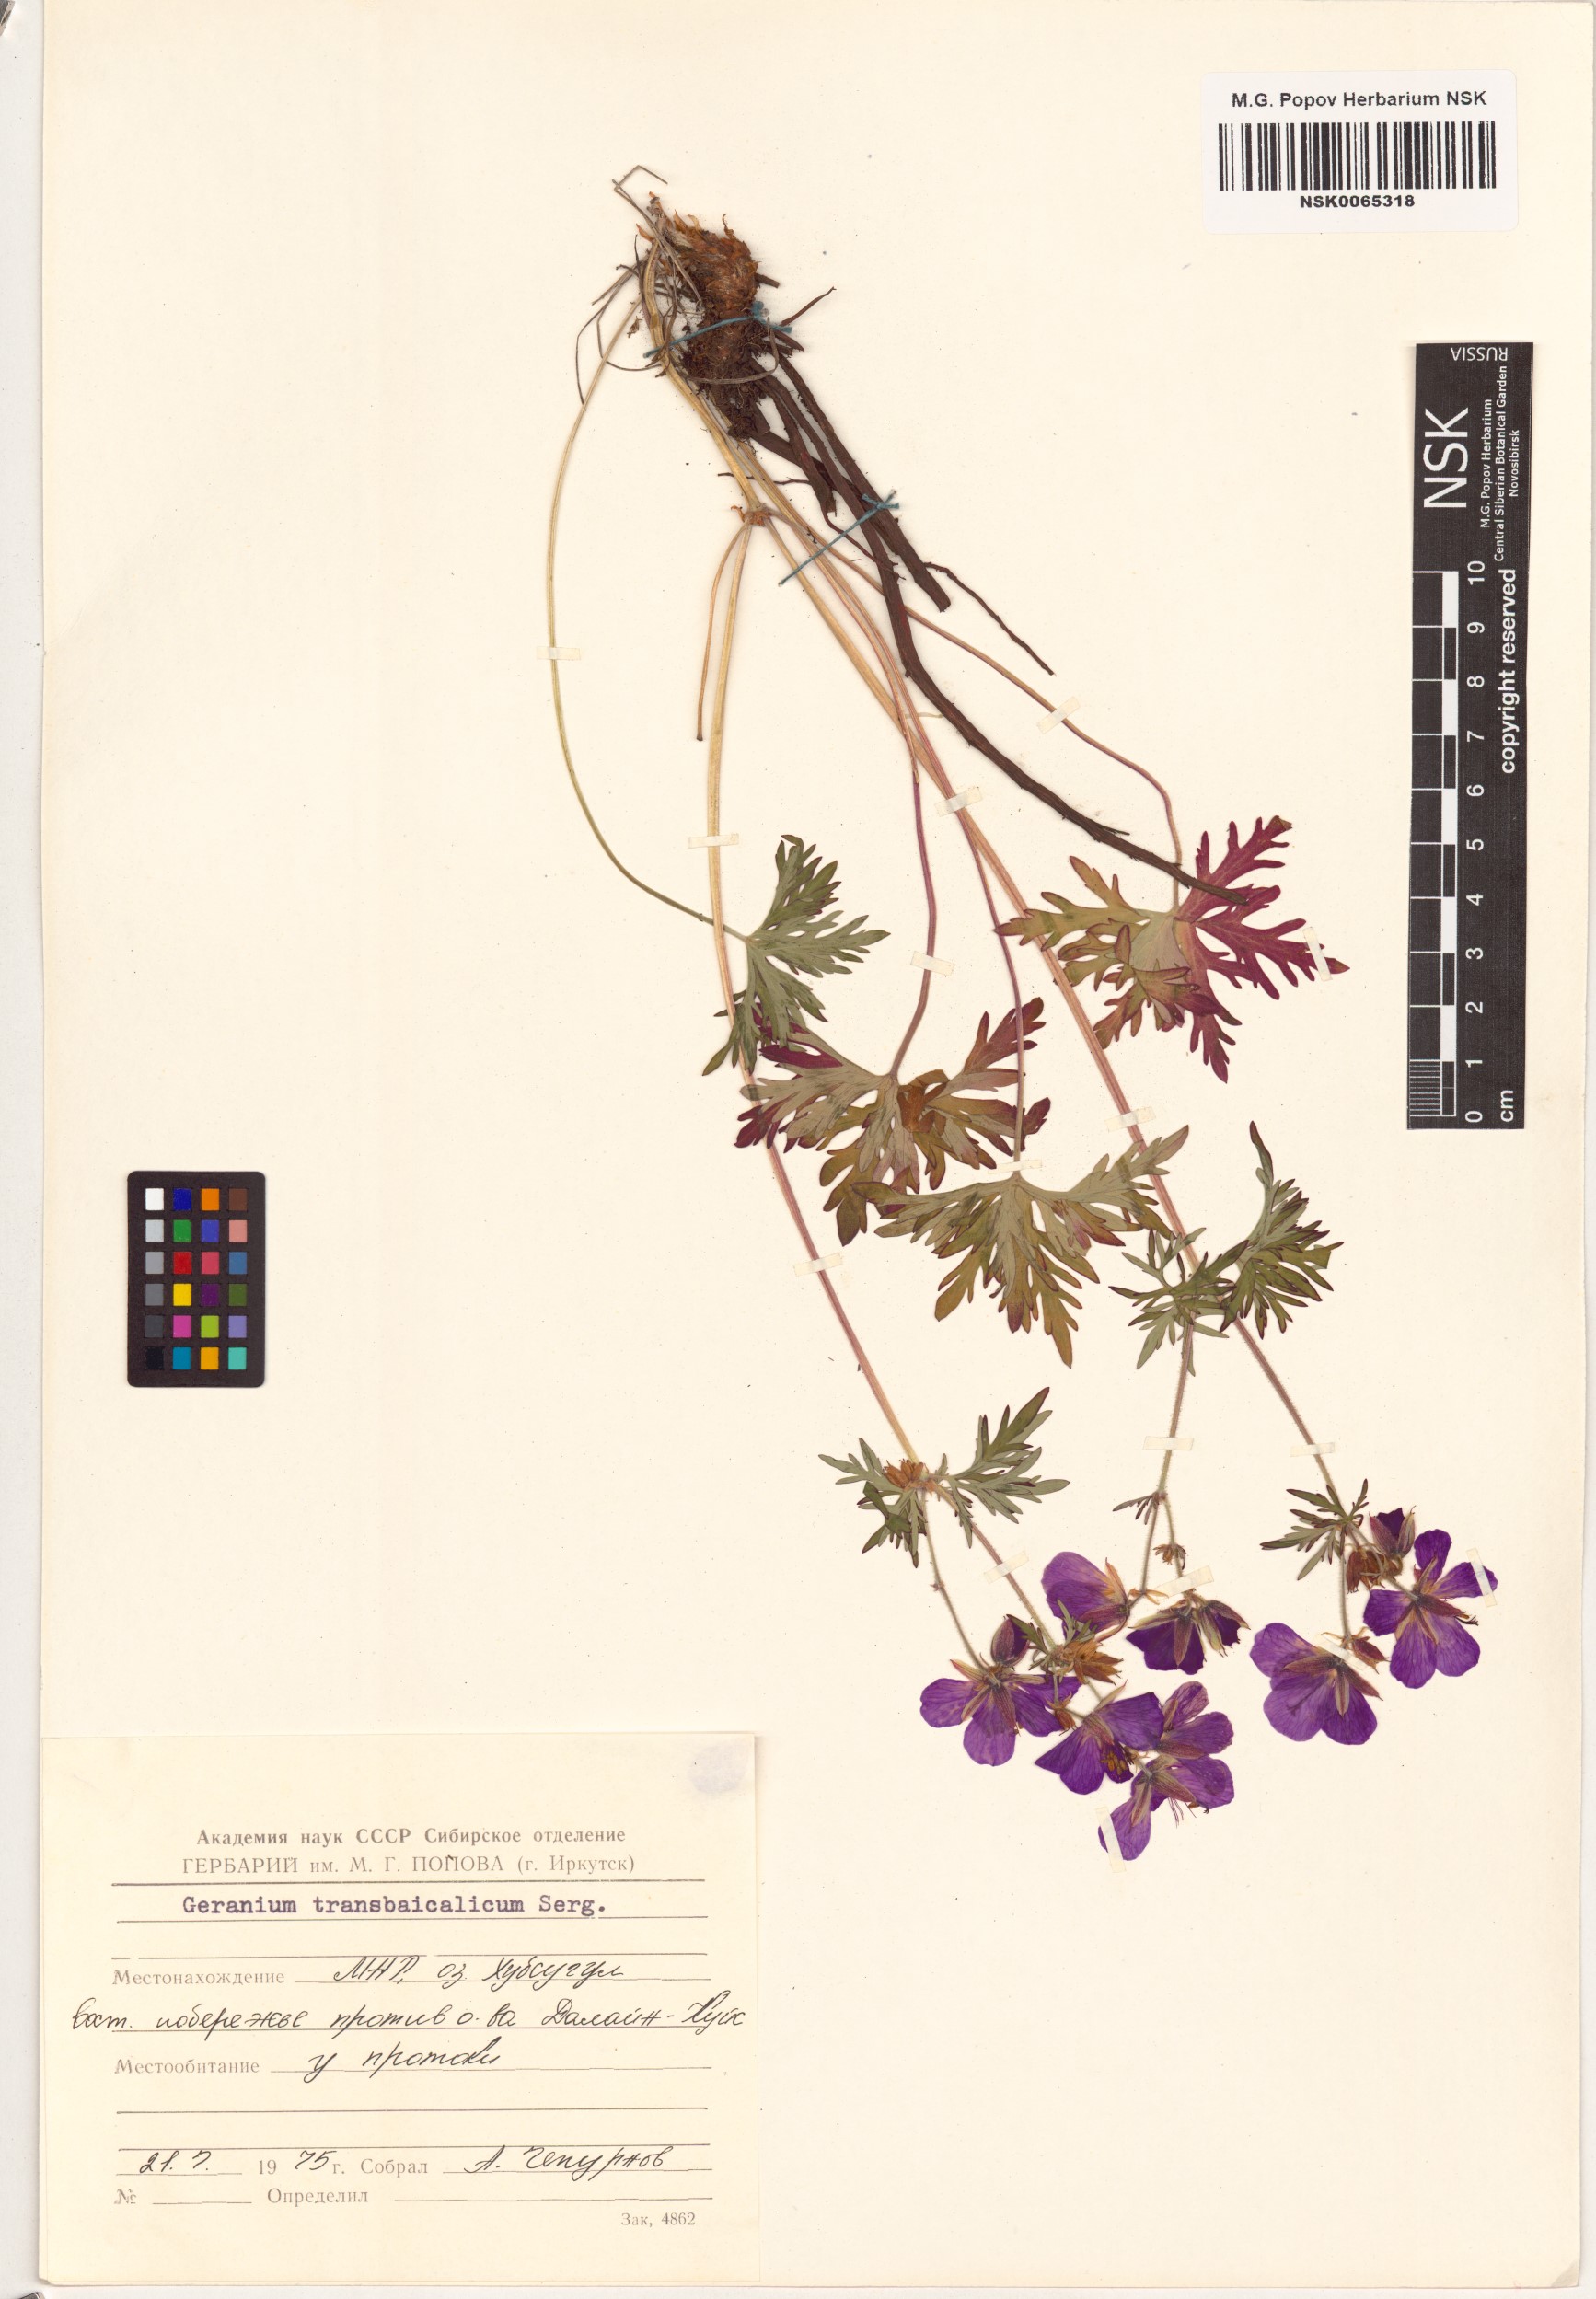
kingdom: Plantae
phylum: Tracheophyta
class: Magnoliopsida
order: Geraniales
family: Geraniaceae
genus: Geranium
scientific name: Geranium pratense
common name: Meadow crane's-bill
